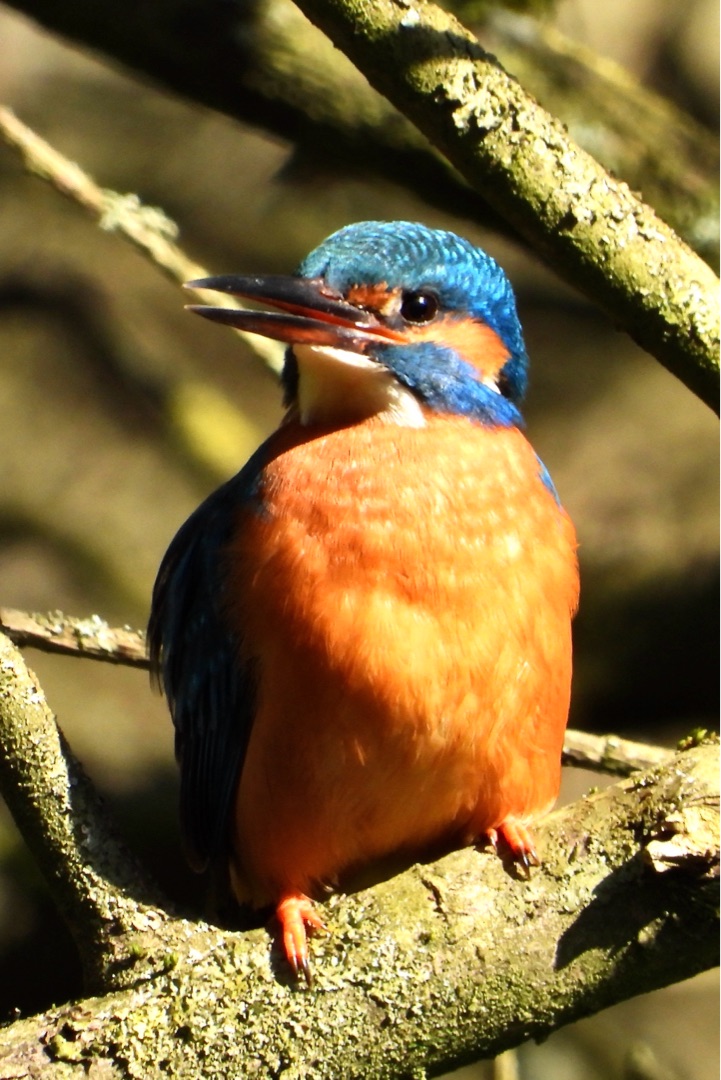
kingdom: Animalia
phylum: Chordata
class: Aves
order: Coraciiformes
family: Alcedinidae
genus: Alcedo
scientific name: Alcedo atthis
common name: Isfugl
